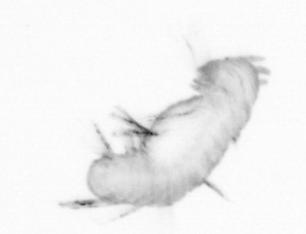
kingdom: Animalia
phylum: Annelida
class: Polychaeta
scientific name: Polychaeta
